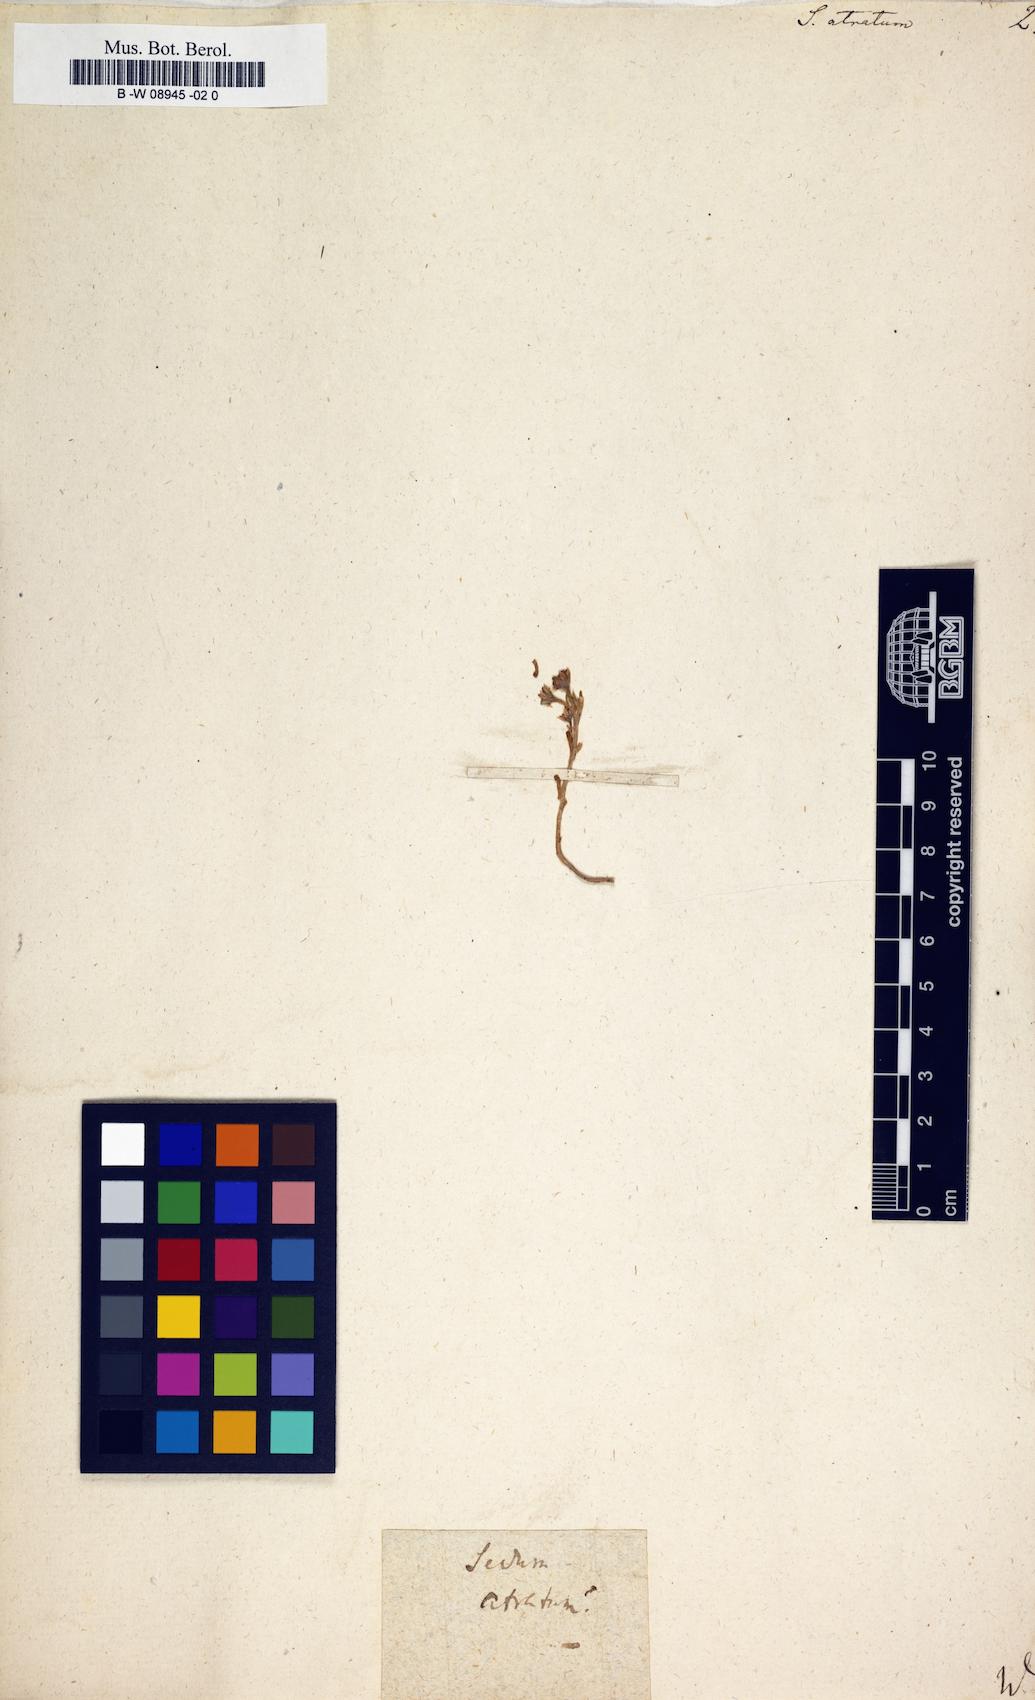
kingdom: Plantae
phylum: Tracheophyta
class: Magnoliopsida
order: Saxifragales
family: Crassulaceae
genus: Sedum
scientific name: Sedum atratum
